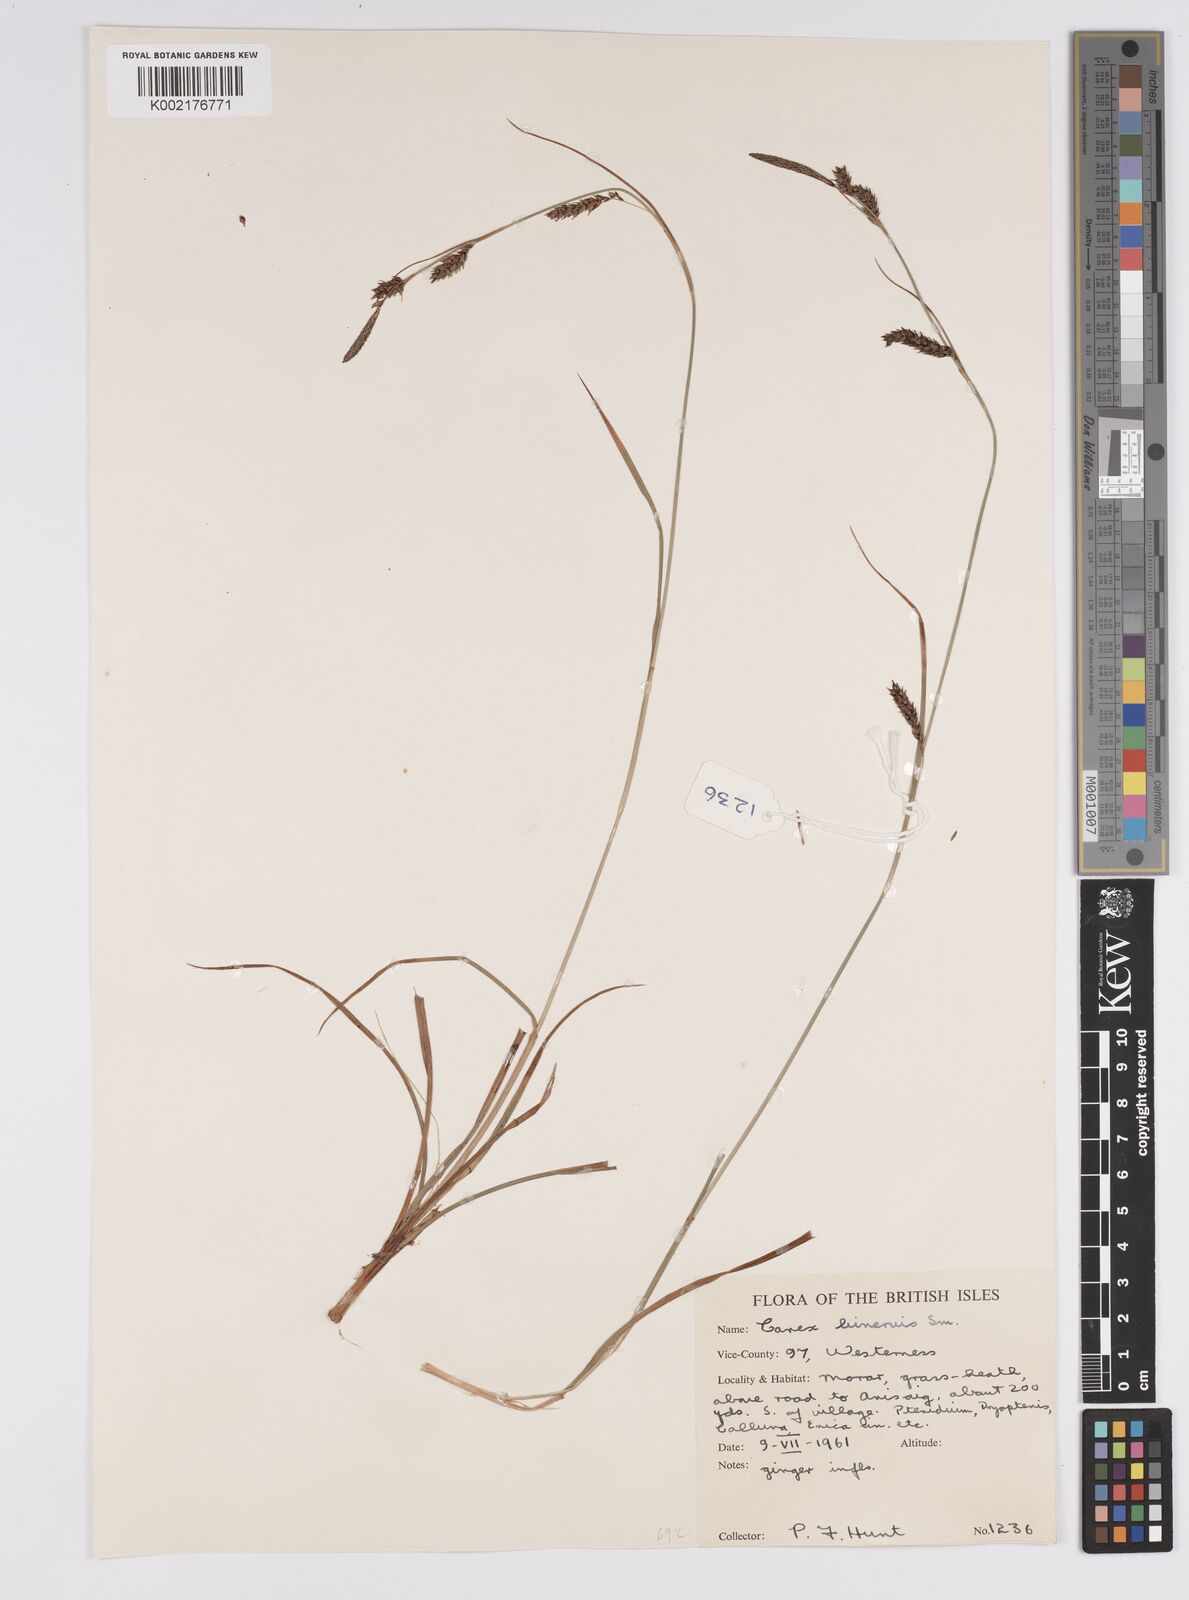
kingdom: Plantae
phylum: Tracheophyta
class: Liliopsida
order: Poales
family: Cyperaceae
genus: Carex
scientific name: Carex binervis
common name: Green-ribbed sedge
